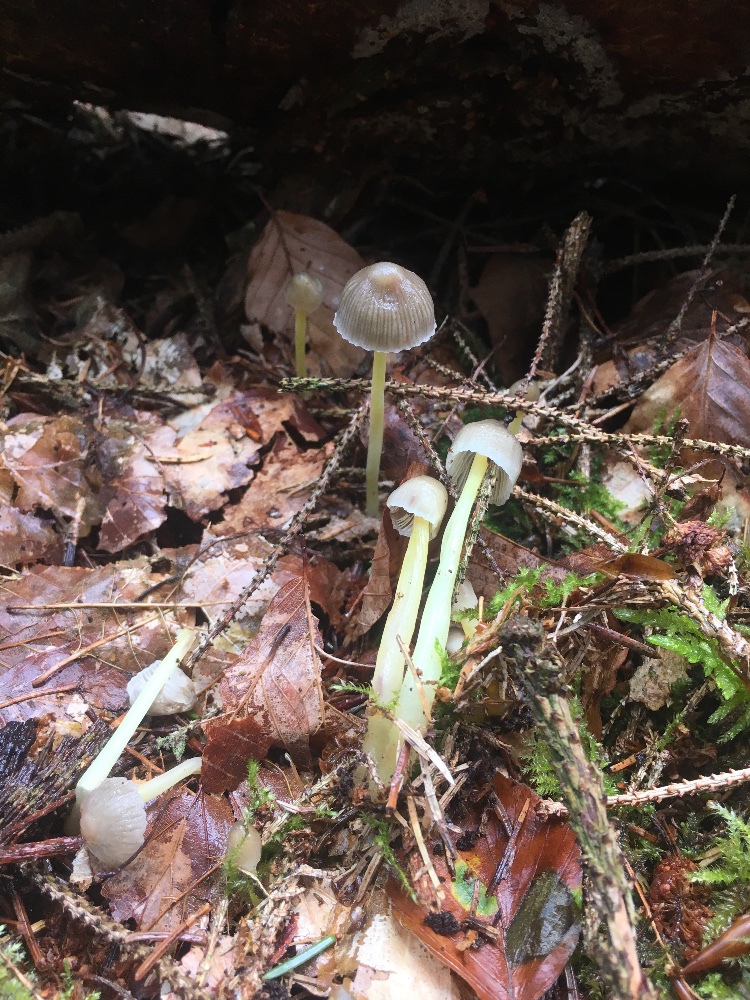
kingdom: Fungi
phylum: Basidiomycota
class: Agaricomycetes
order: Agaricales
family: Mycenaceae
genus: Mycena
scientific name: Mycena epipterygia
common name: gulstokket huesvamp
